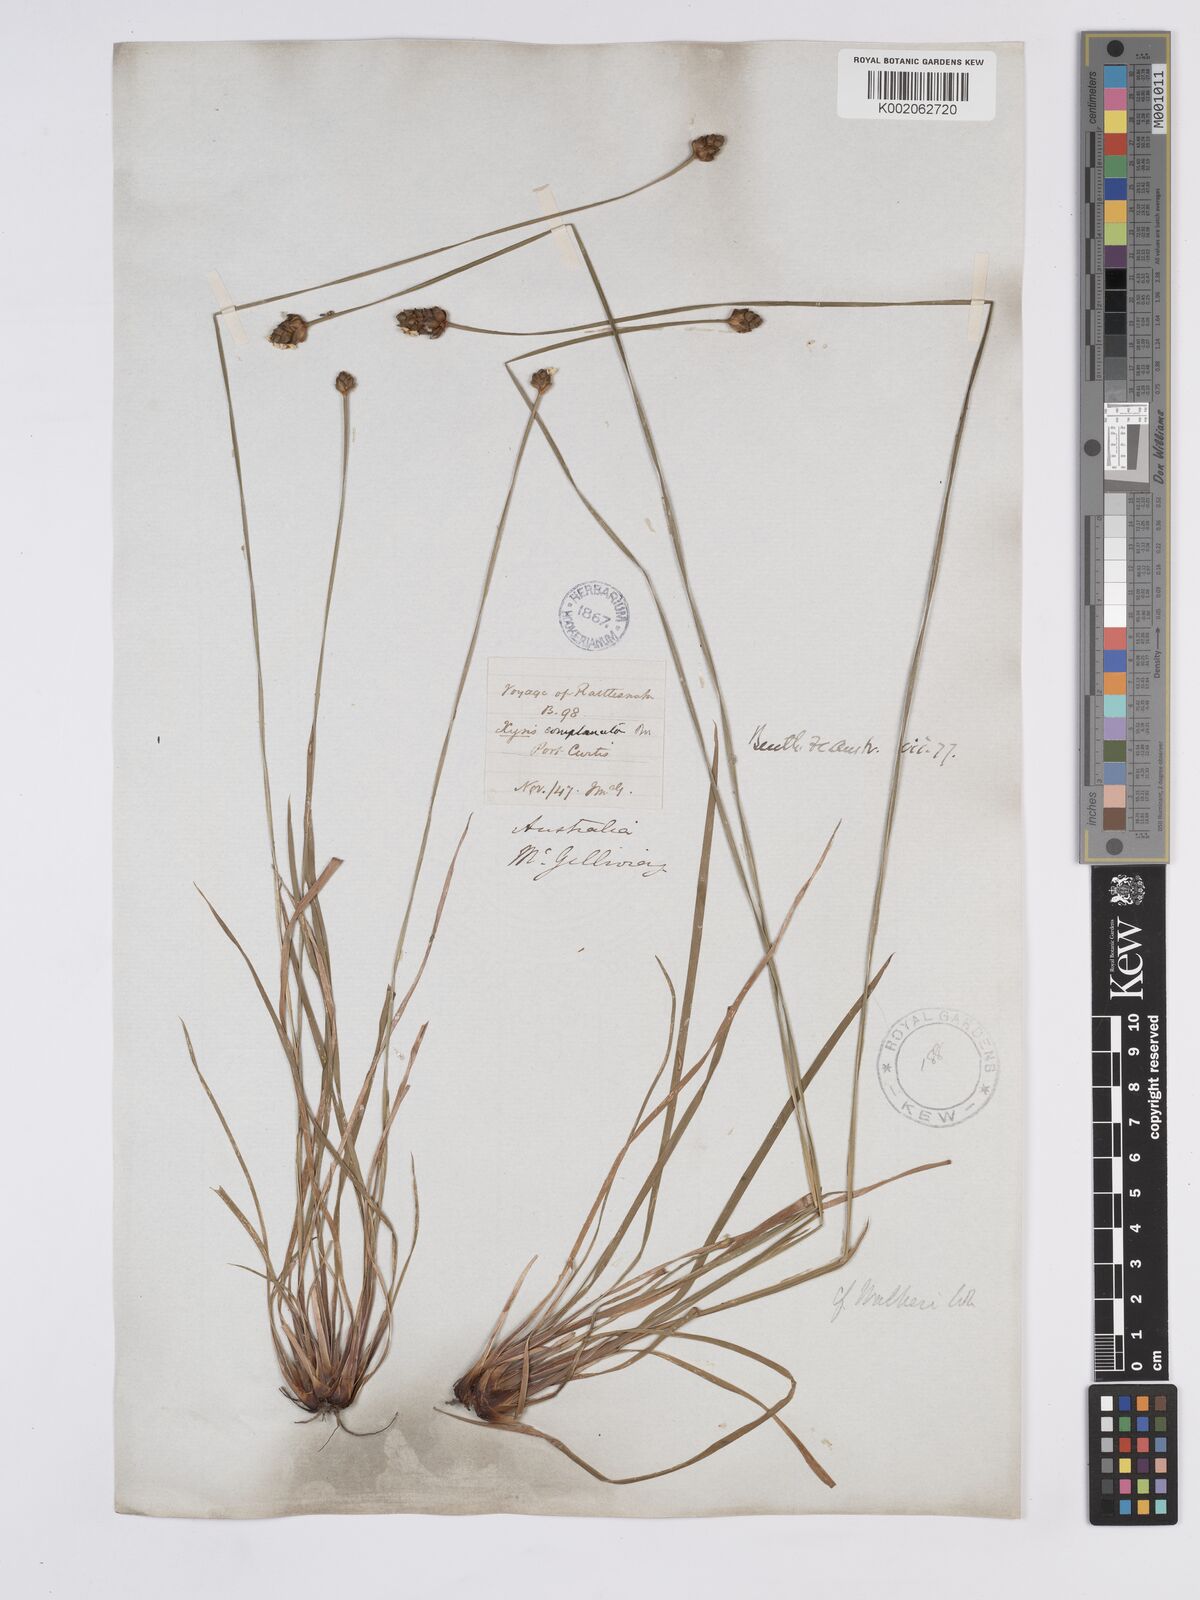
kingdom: Plantae
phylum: Tracheophyta
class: Liliopsida
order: Poales
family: Xyridaceae
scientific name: Xyridaceae
